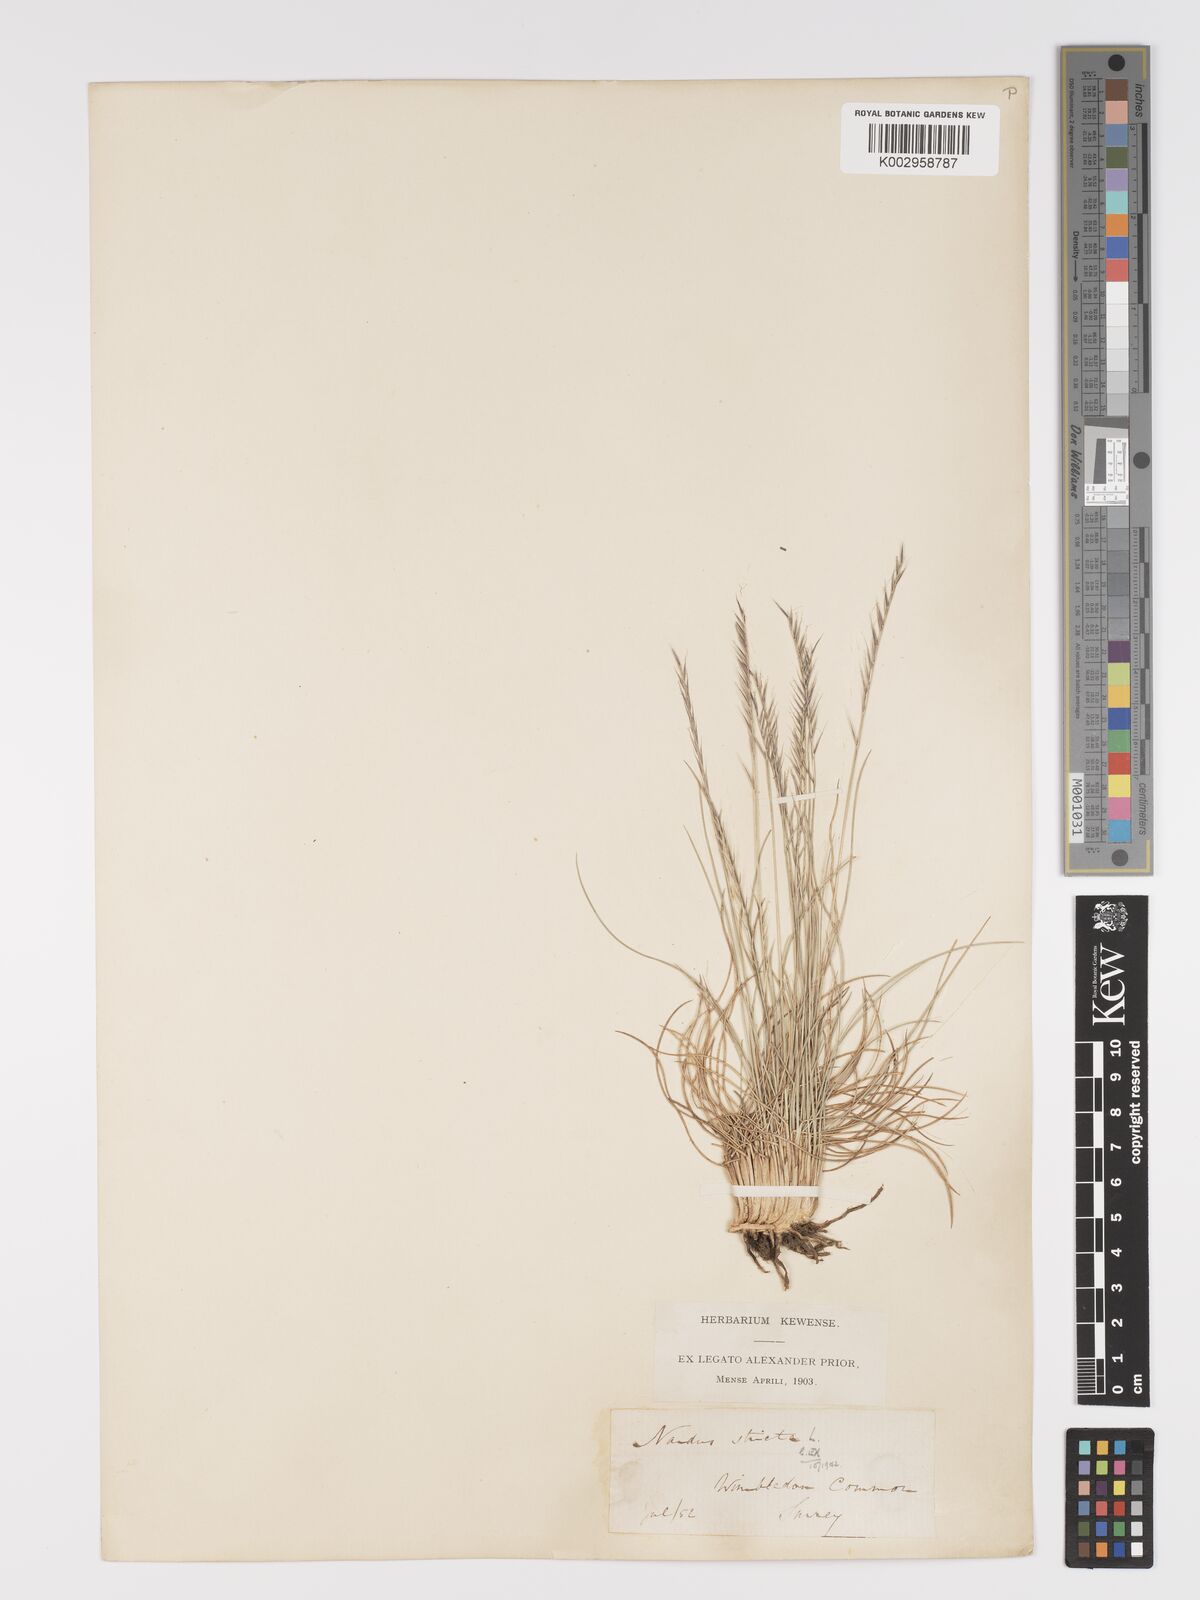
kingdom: Plantae
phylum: Tracheophyta
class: Liliopsida
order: Poales
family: Poaceae
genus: Nardus
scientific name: Nardus stricta
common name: Mat-grass
